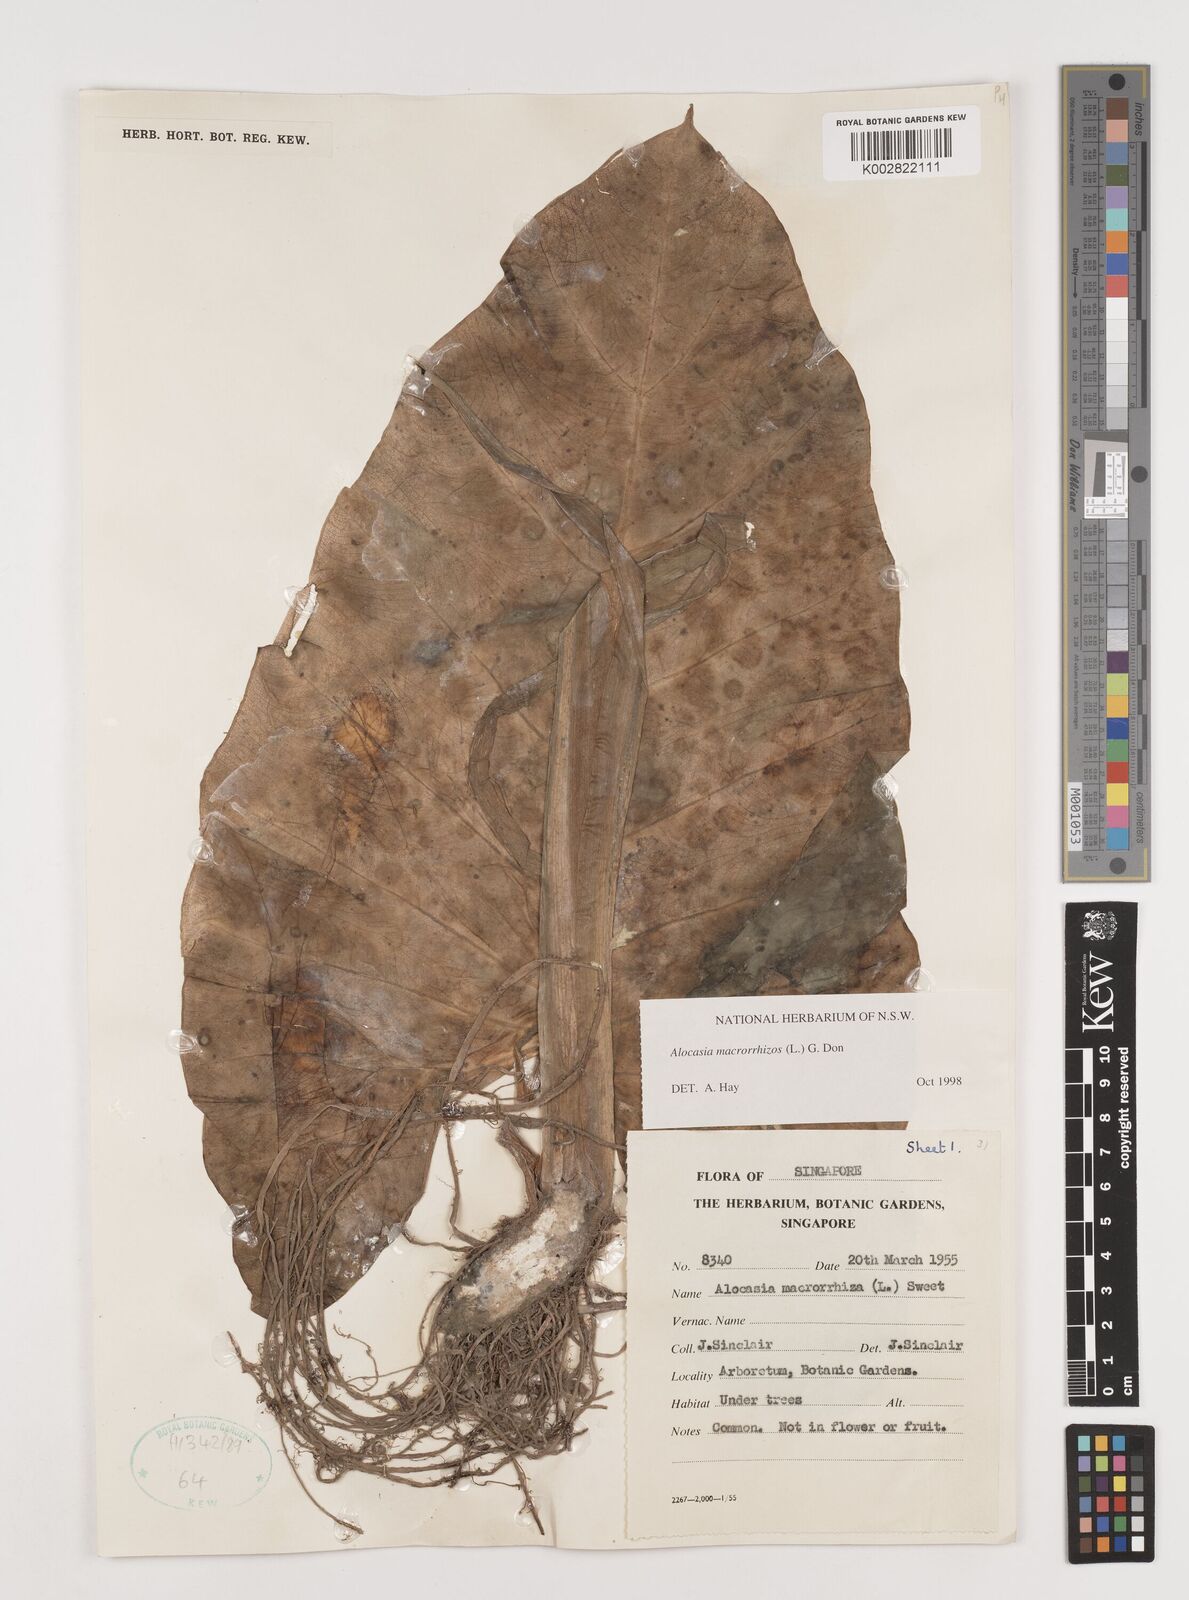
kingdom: Plantae
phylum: Tracheophyta
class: Liliopsida
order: Alismatales
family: Araceae
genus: Alocasia
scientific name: Alocasia macrorrhizos
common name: Giant taro
